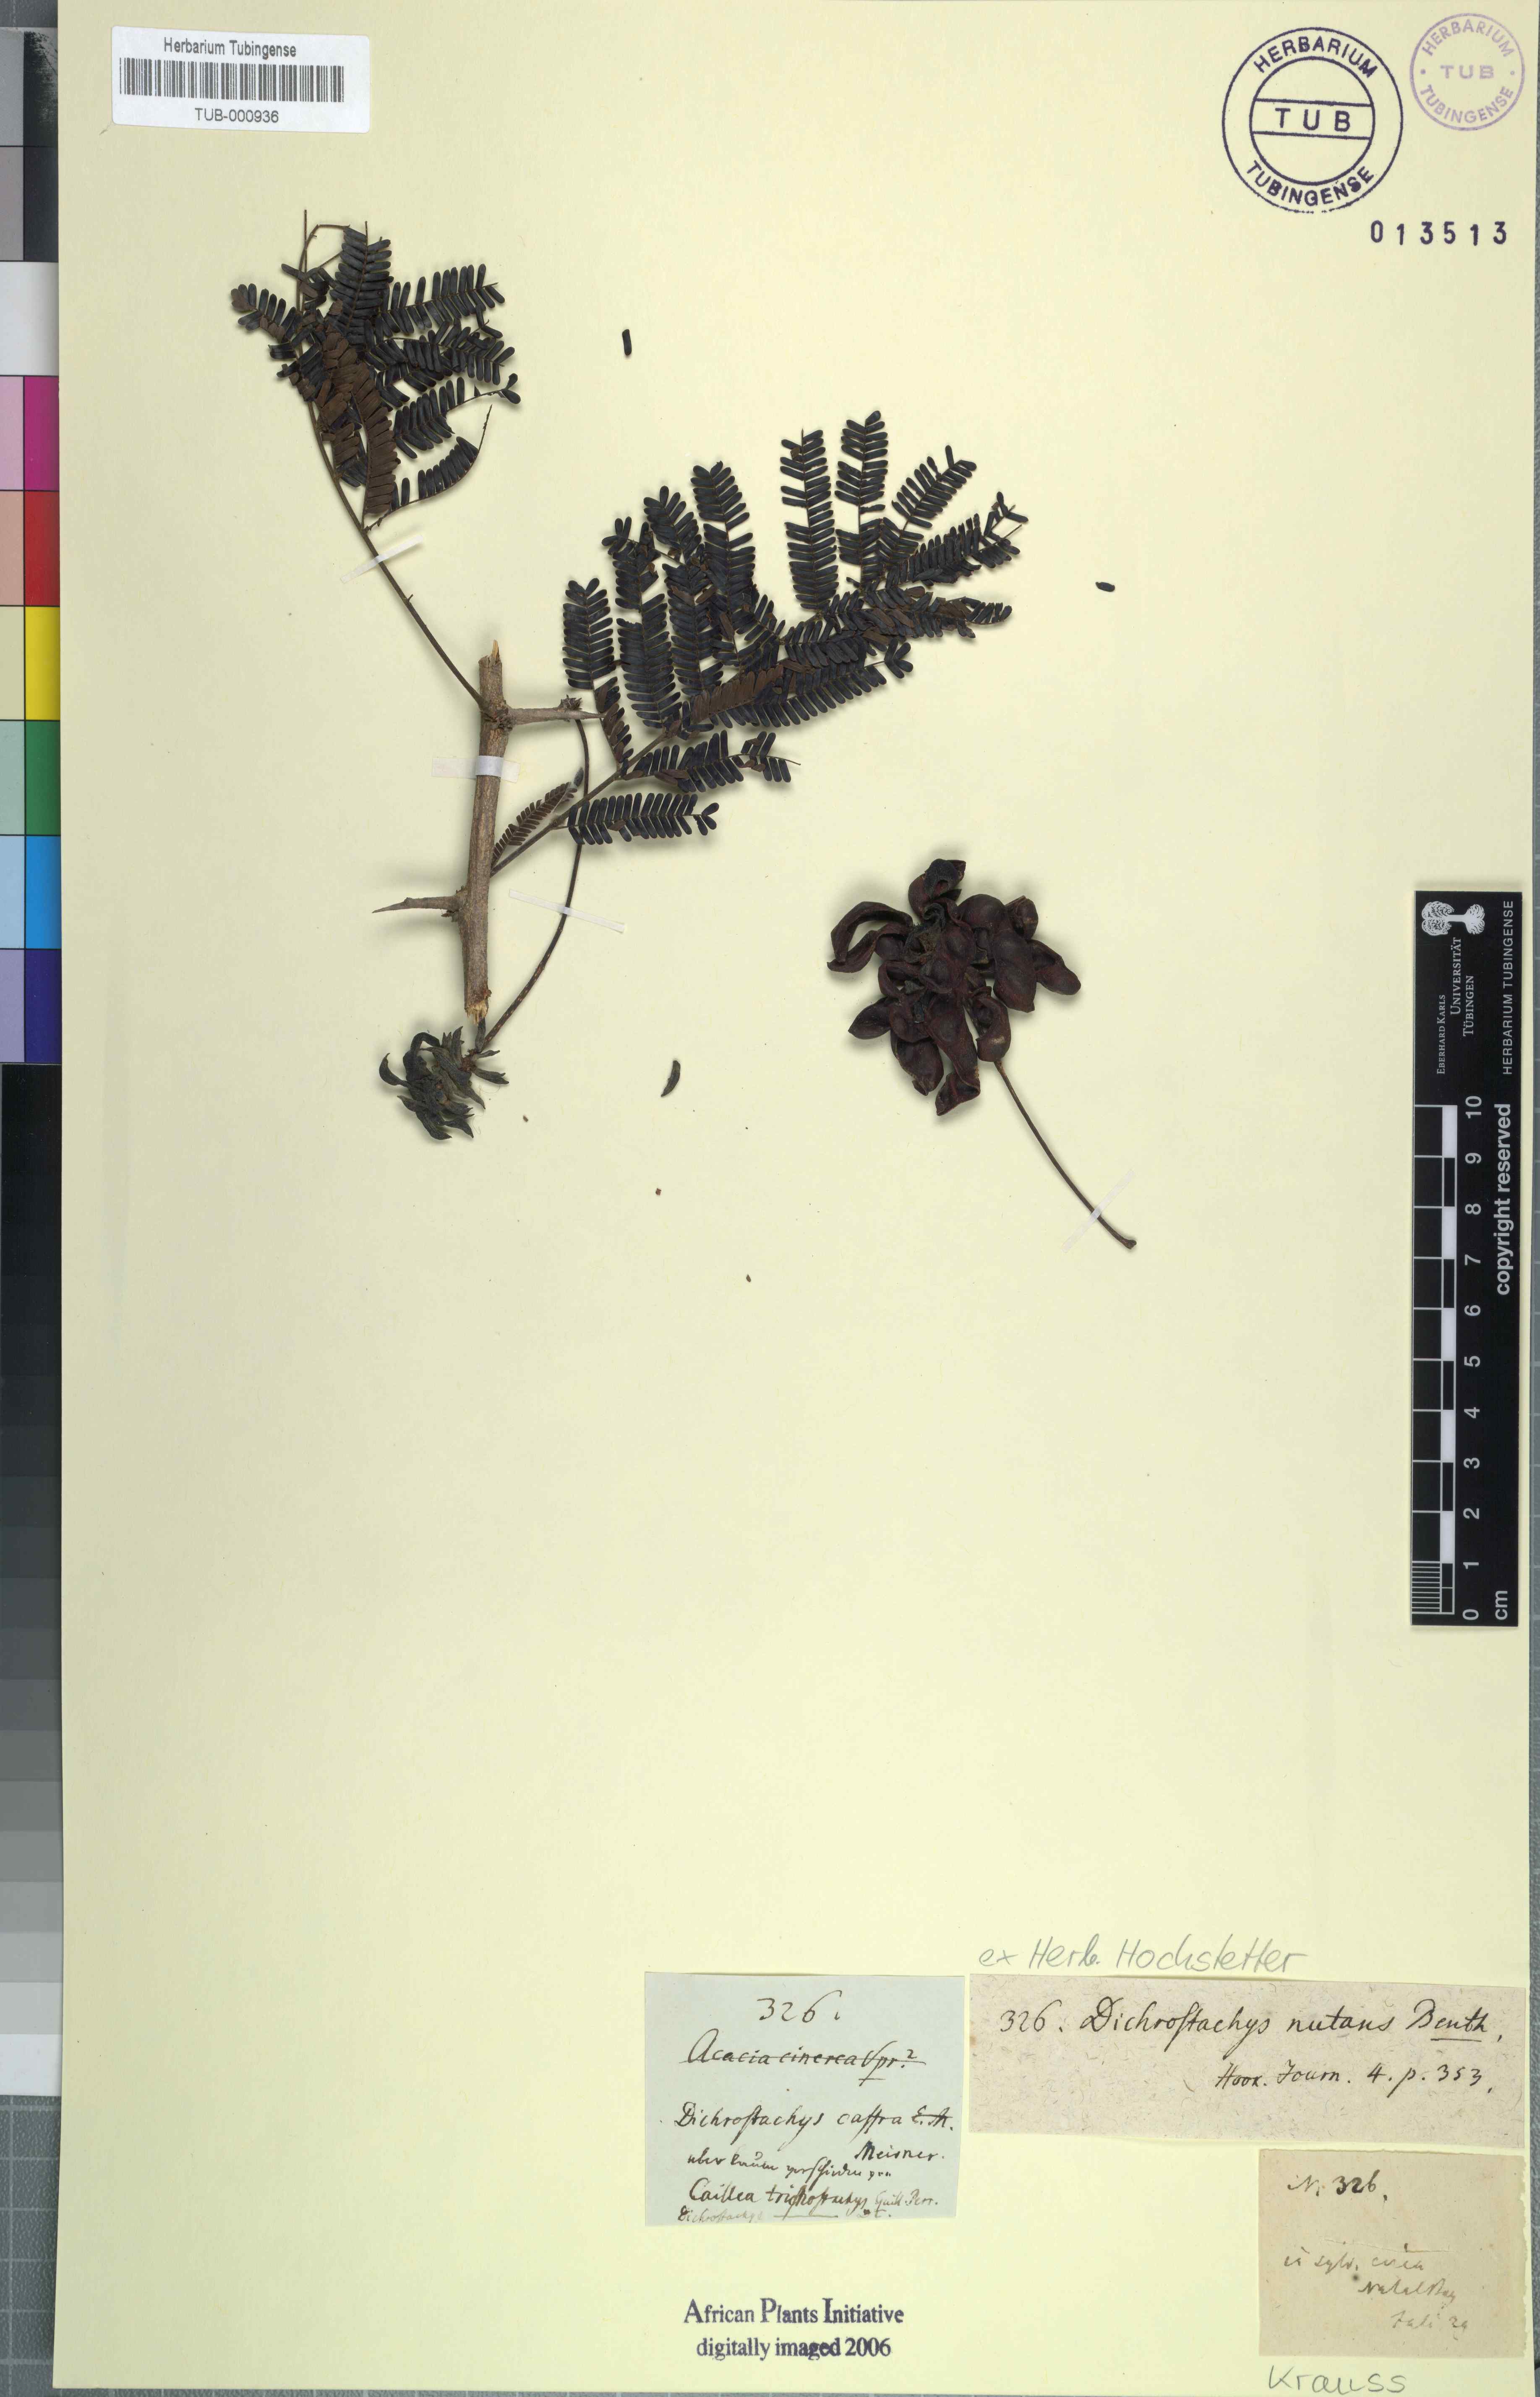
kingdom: Plantae
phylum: Tracheophyta
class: Magnoliopsida
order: Fabales
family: Fabaceae
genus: Dichrostachys
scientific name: Dichrostachys cinerea
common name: Sicklebush
